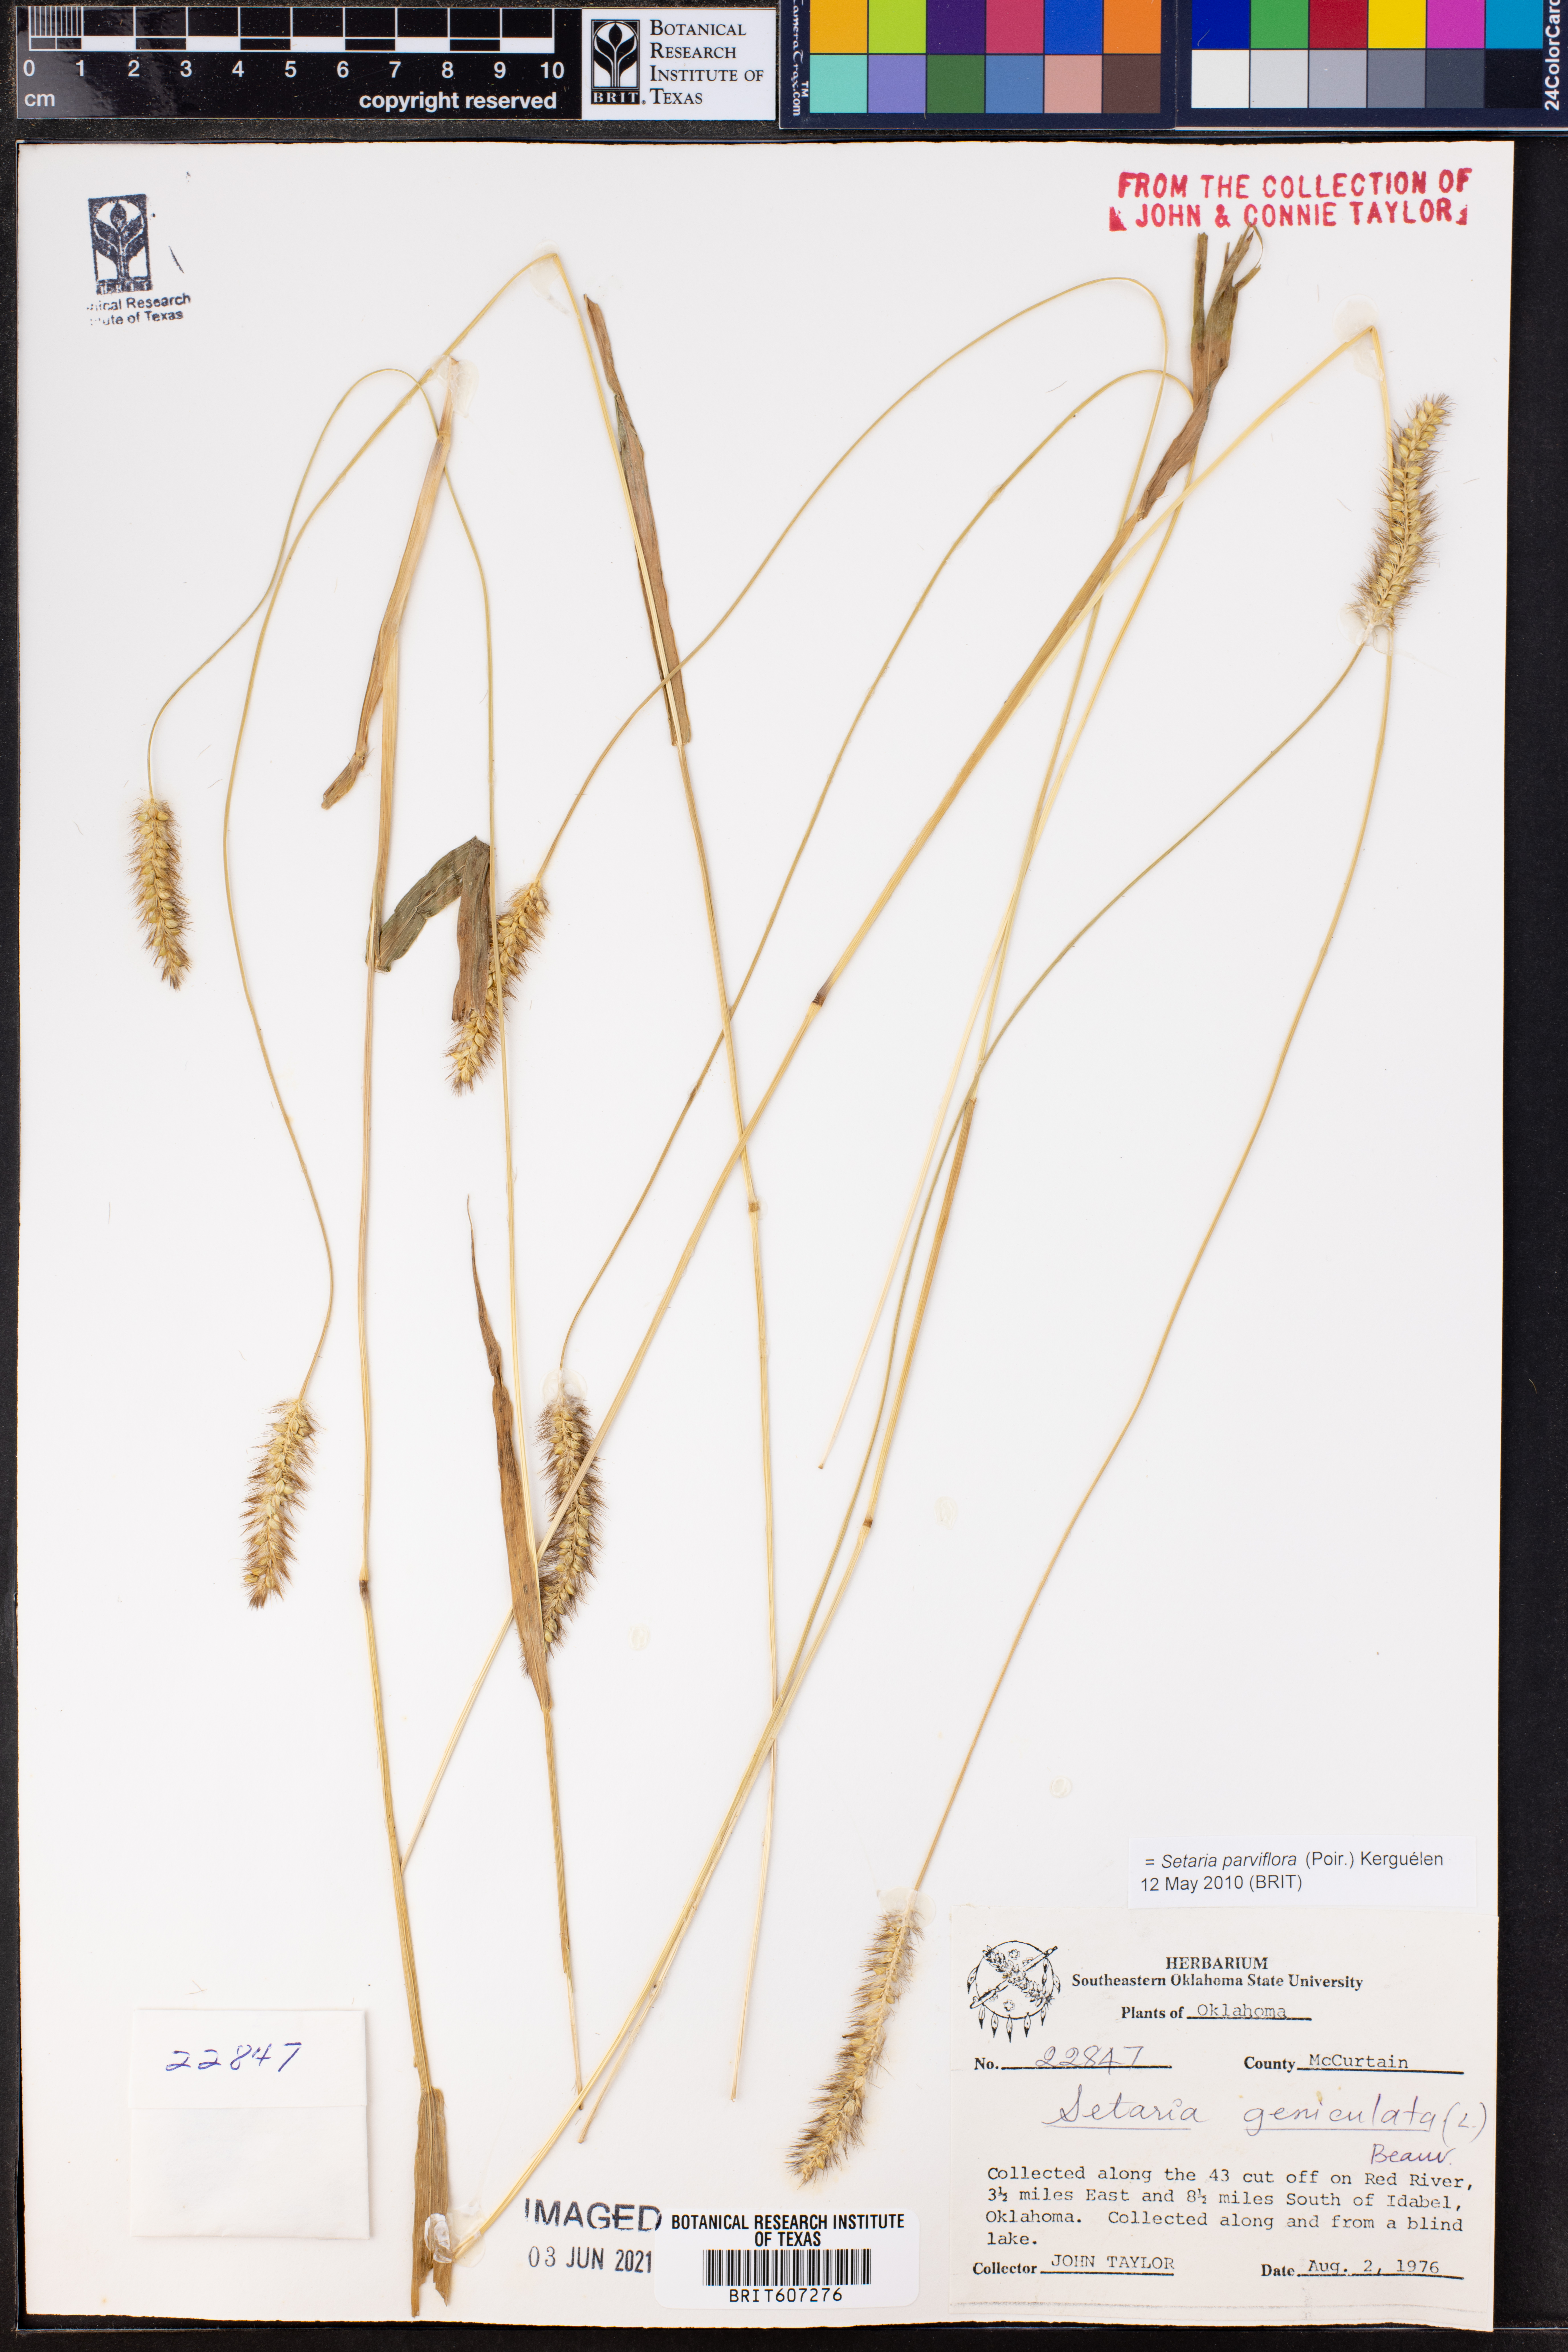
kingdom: Plantae
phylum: Tracheophyta
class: Liliopsida
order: Poales
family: Poaceae
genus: Setaria
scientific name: Setaria parviflora
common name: Knotroot bristle-grass
